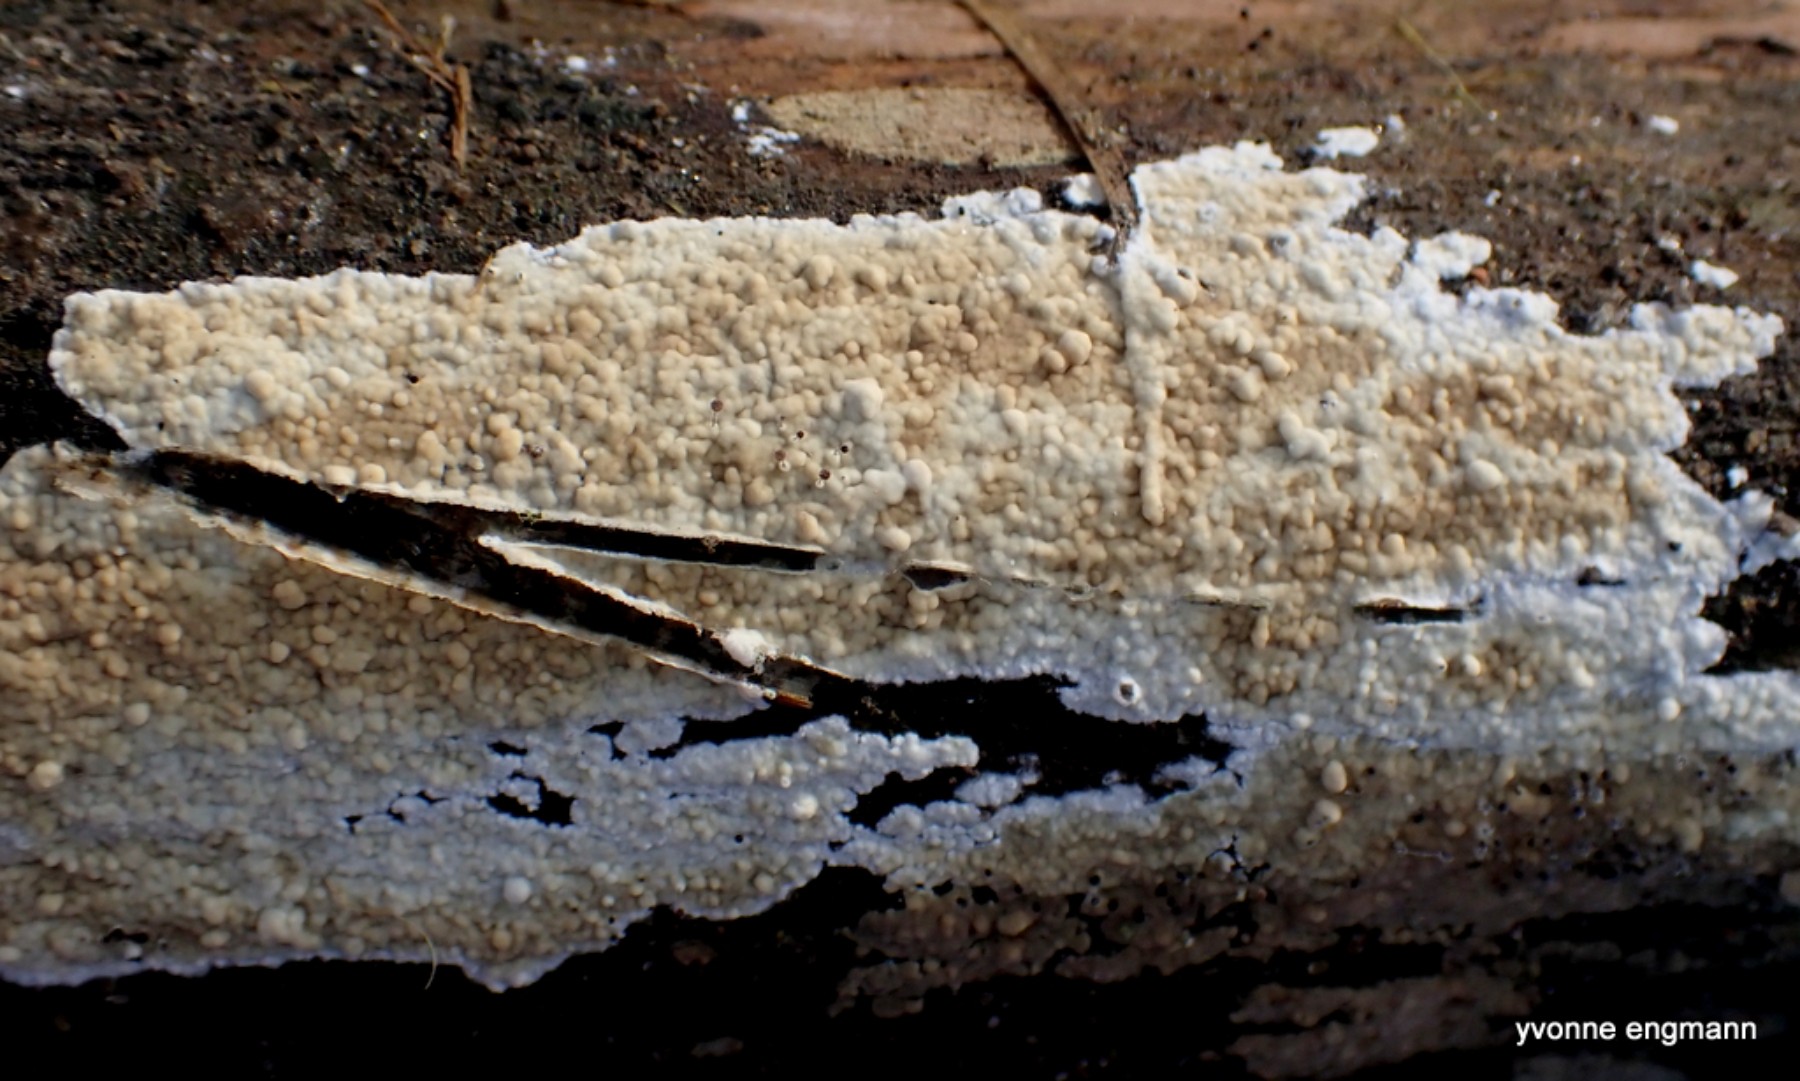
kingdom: Fungi
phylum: Basidiomycota
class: Agaricomycetes
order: Corticiales
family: Corticiaceae
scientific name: Corticiaceae
